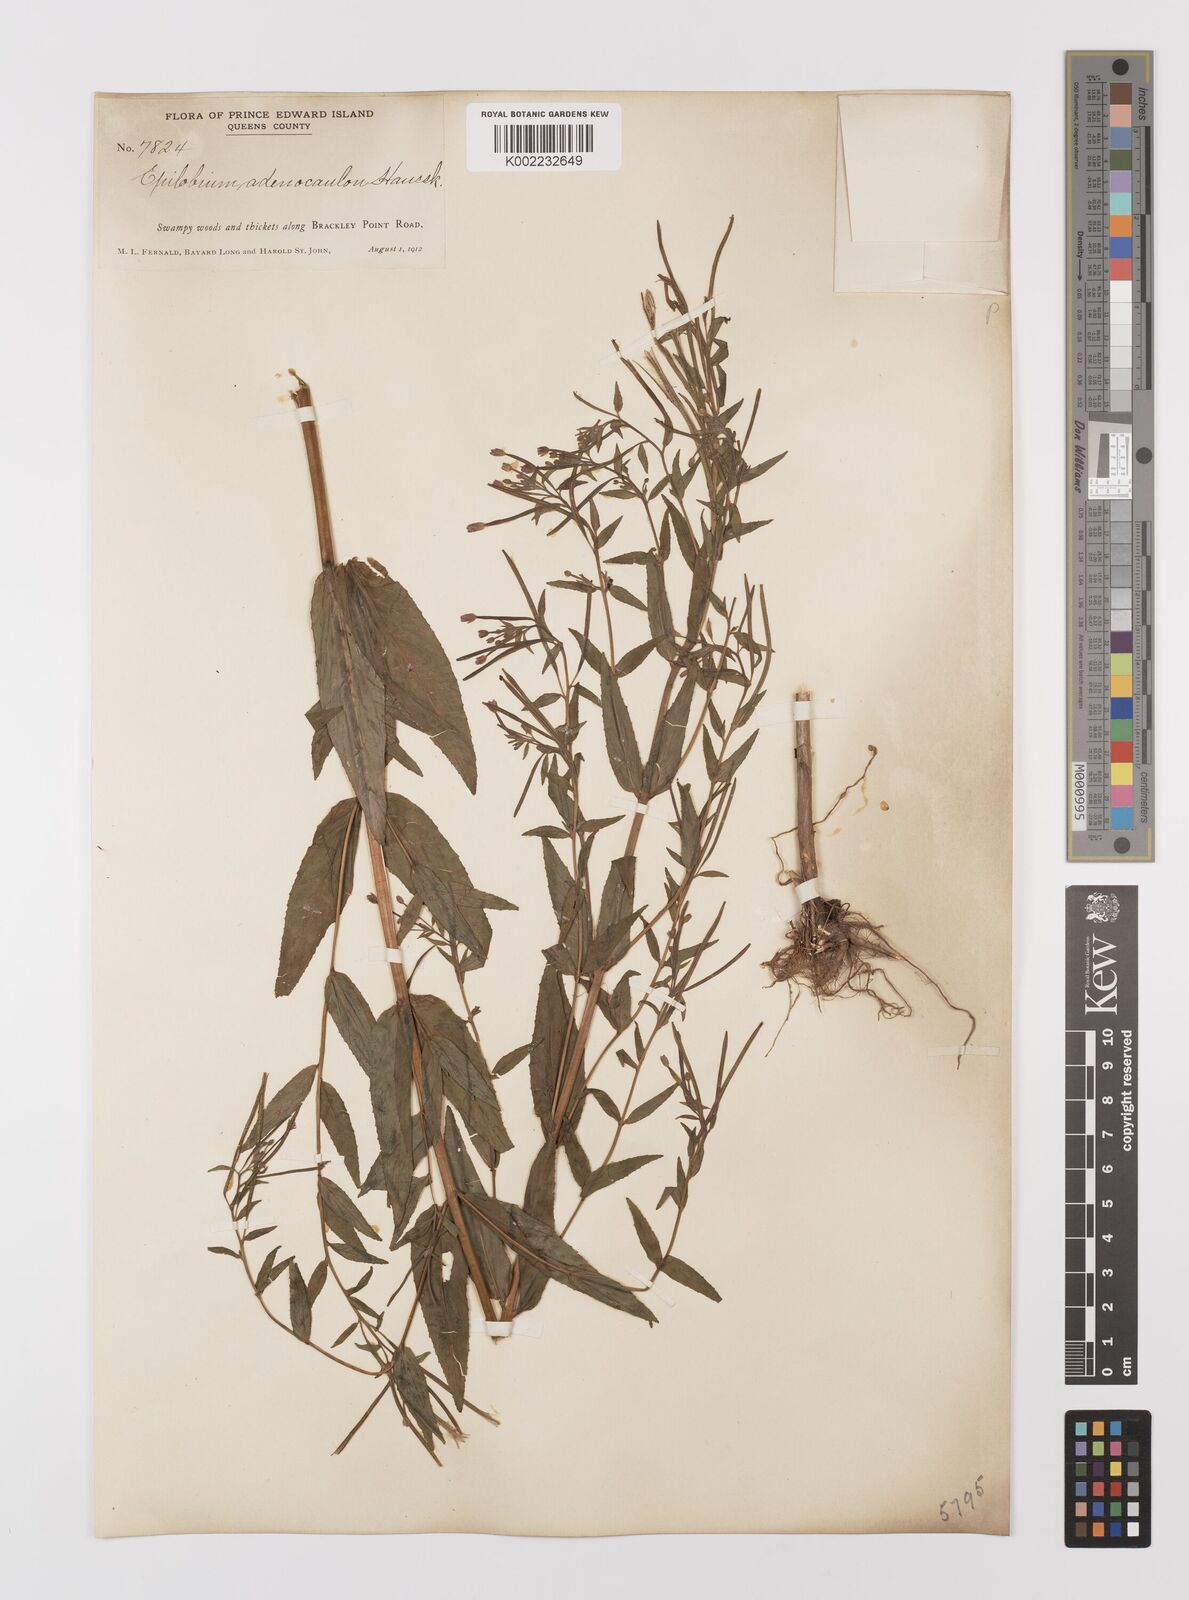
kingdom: Plantae
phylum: Tracheophyta
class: Magnoliopsida
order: Myrtales
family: Onagraceae
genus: Epilobium
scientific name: Epilobium ciliatum
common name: American willowherb
